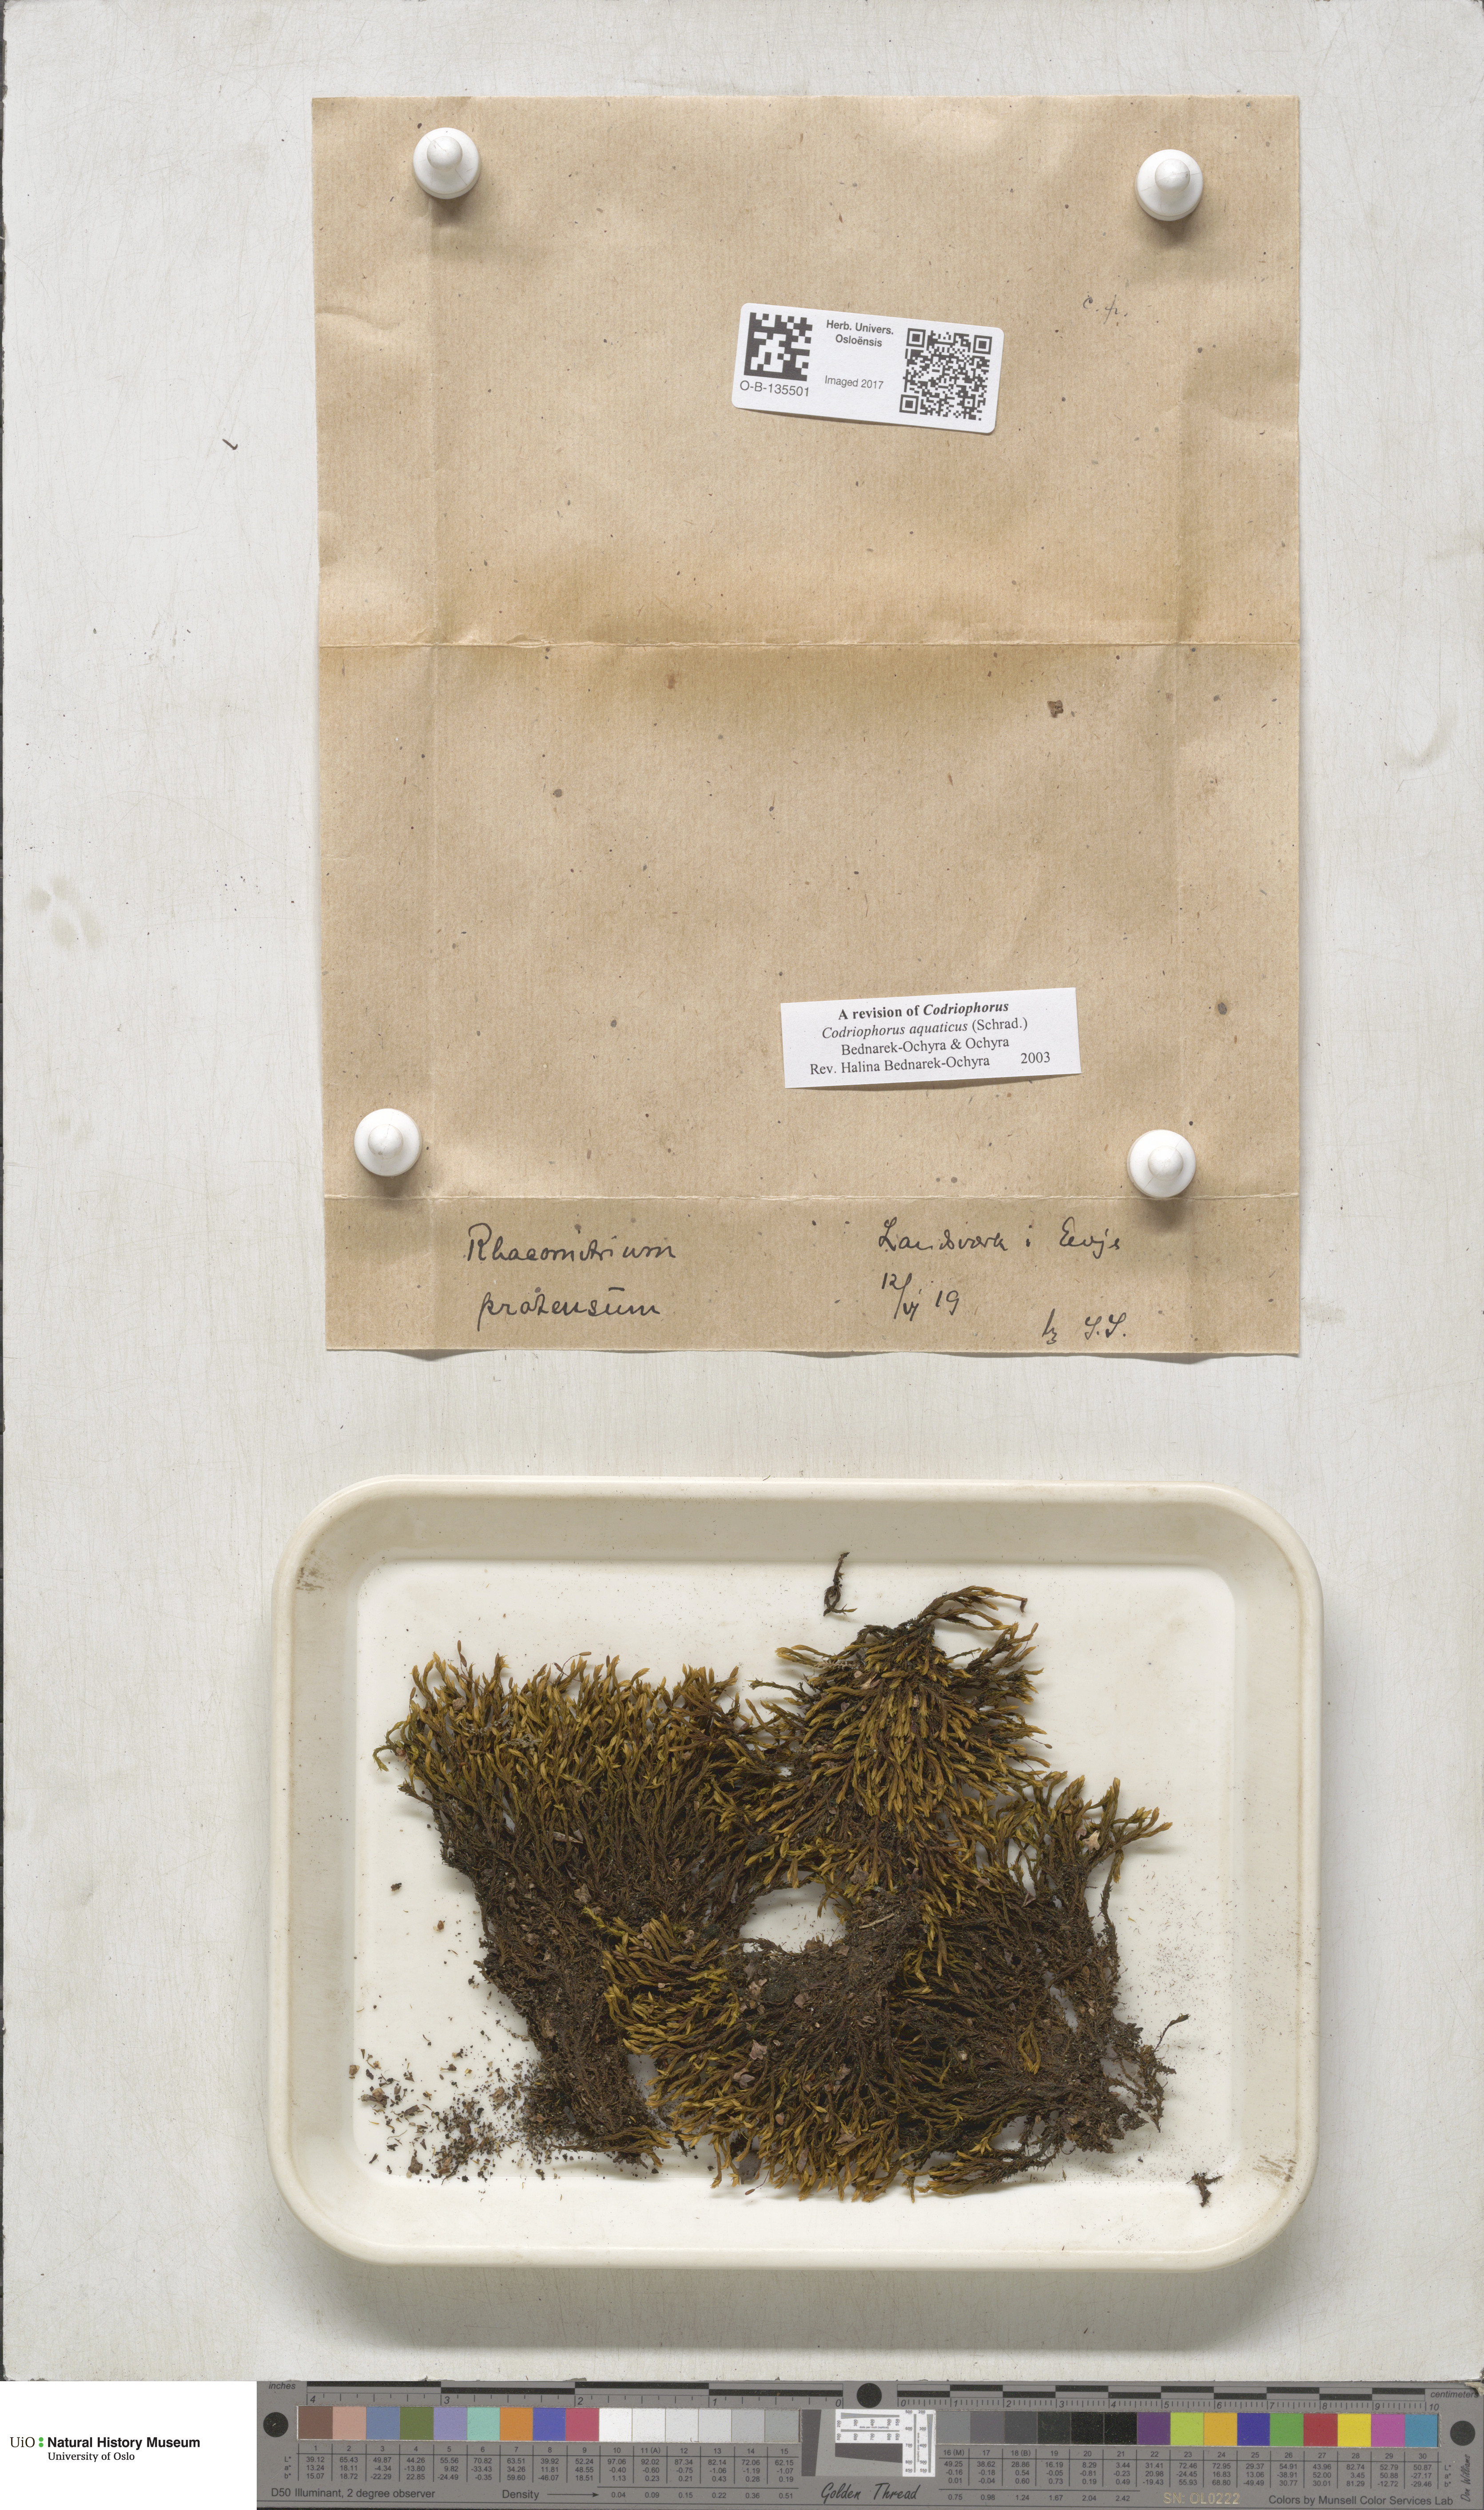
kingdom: Plantae
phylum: Bryophyta
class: Bryopsida
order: Grimmiales
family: Grimmiaceae
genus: Codriophorus
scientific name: Codriophorus aquaticus
